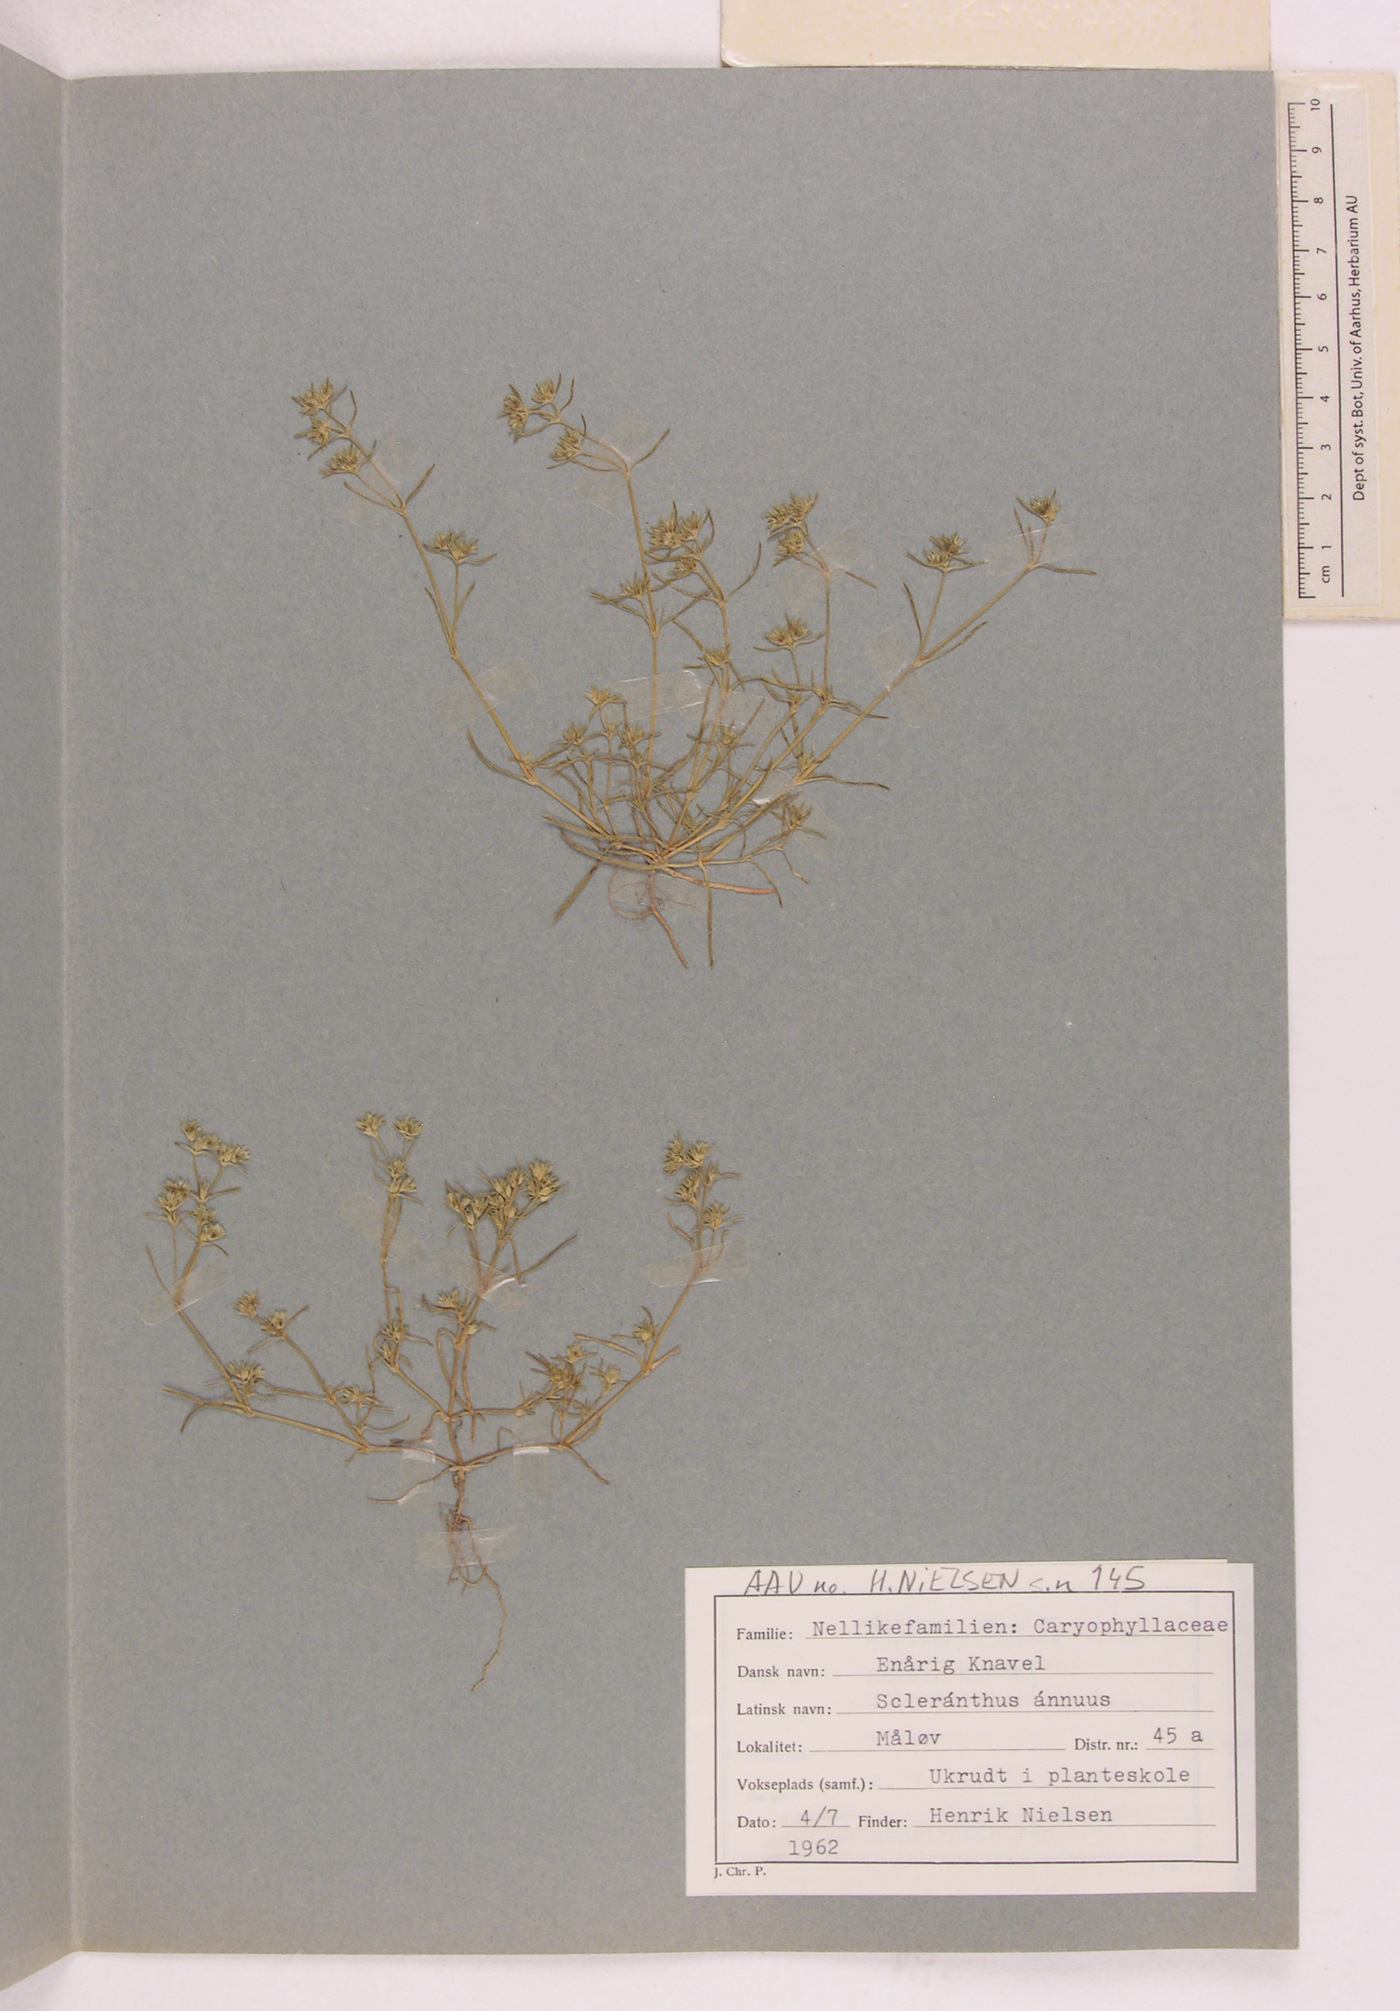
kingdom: Plantae
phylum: Tracheophyta
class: Magnoliopsida
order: Caryophyllales
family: Caryophyllaceae
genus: Scleranthus
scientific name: Scleranthus annuus
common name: Annual knawel
